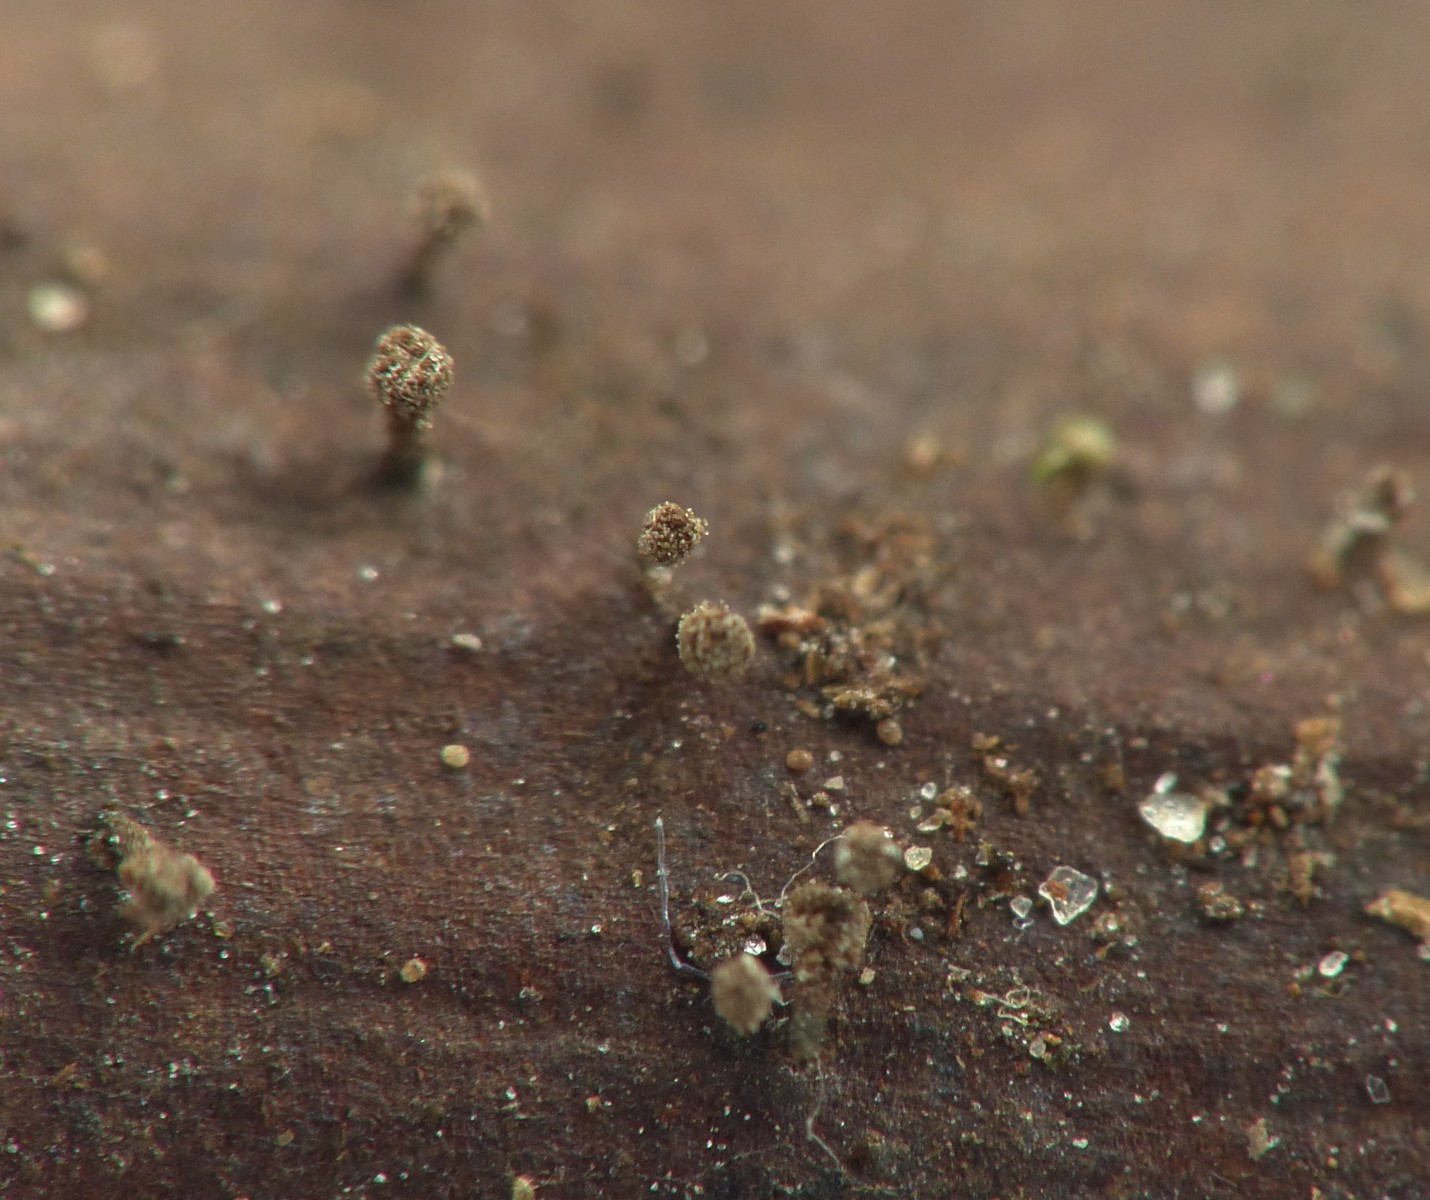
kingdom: Fungi
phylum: Ascomycota
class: Leotiomycetes
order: Helotiales
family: Lachnaceae
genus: Brunnipila
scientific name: Brunnipila clandestina
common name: hindbær-frynseskive
